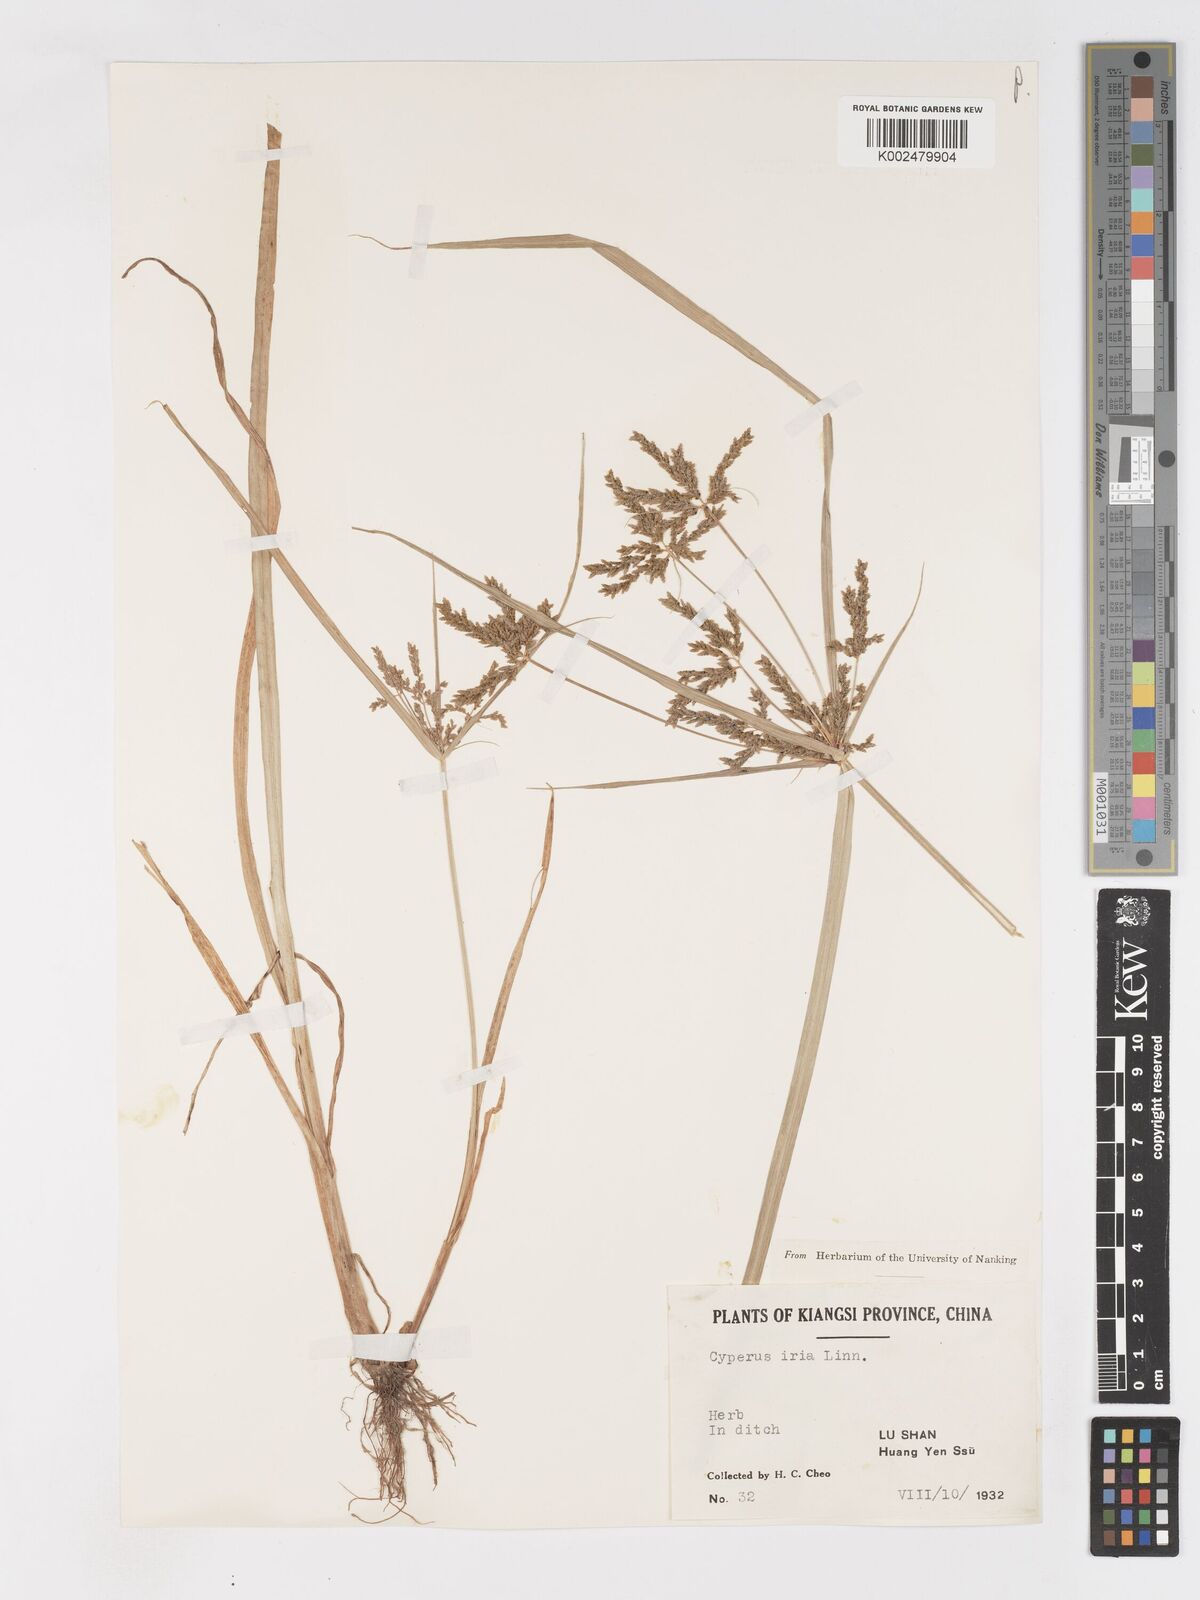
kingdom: Plantae
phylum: Tracheophyta
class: Liliopsida
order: Poales
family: Cyperaceae
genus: Cyperus
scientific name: Cyperus iria
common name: Ricefield flatsedge
